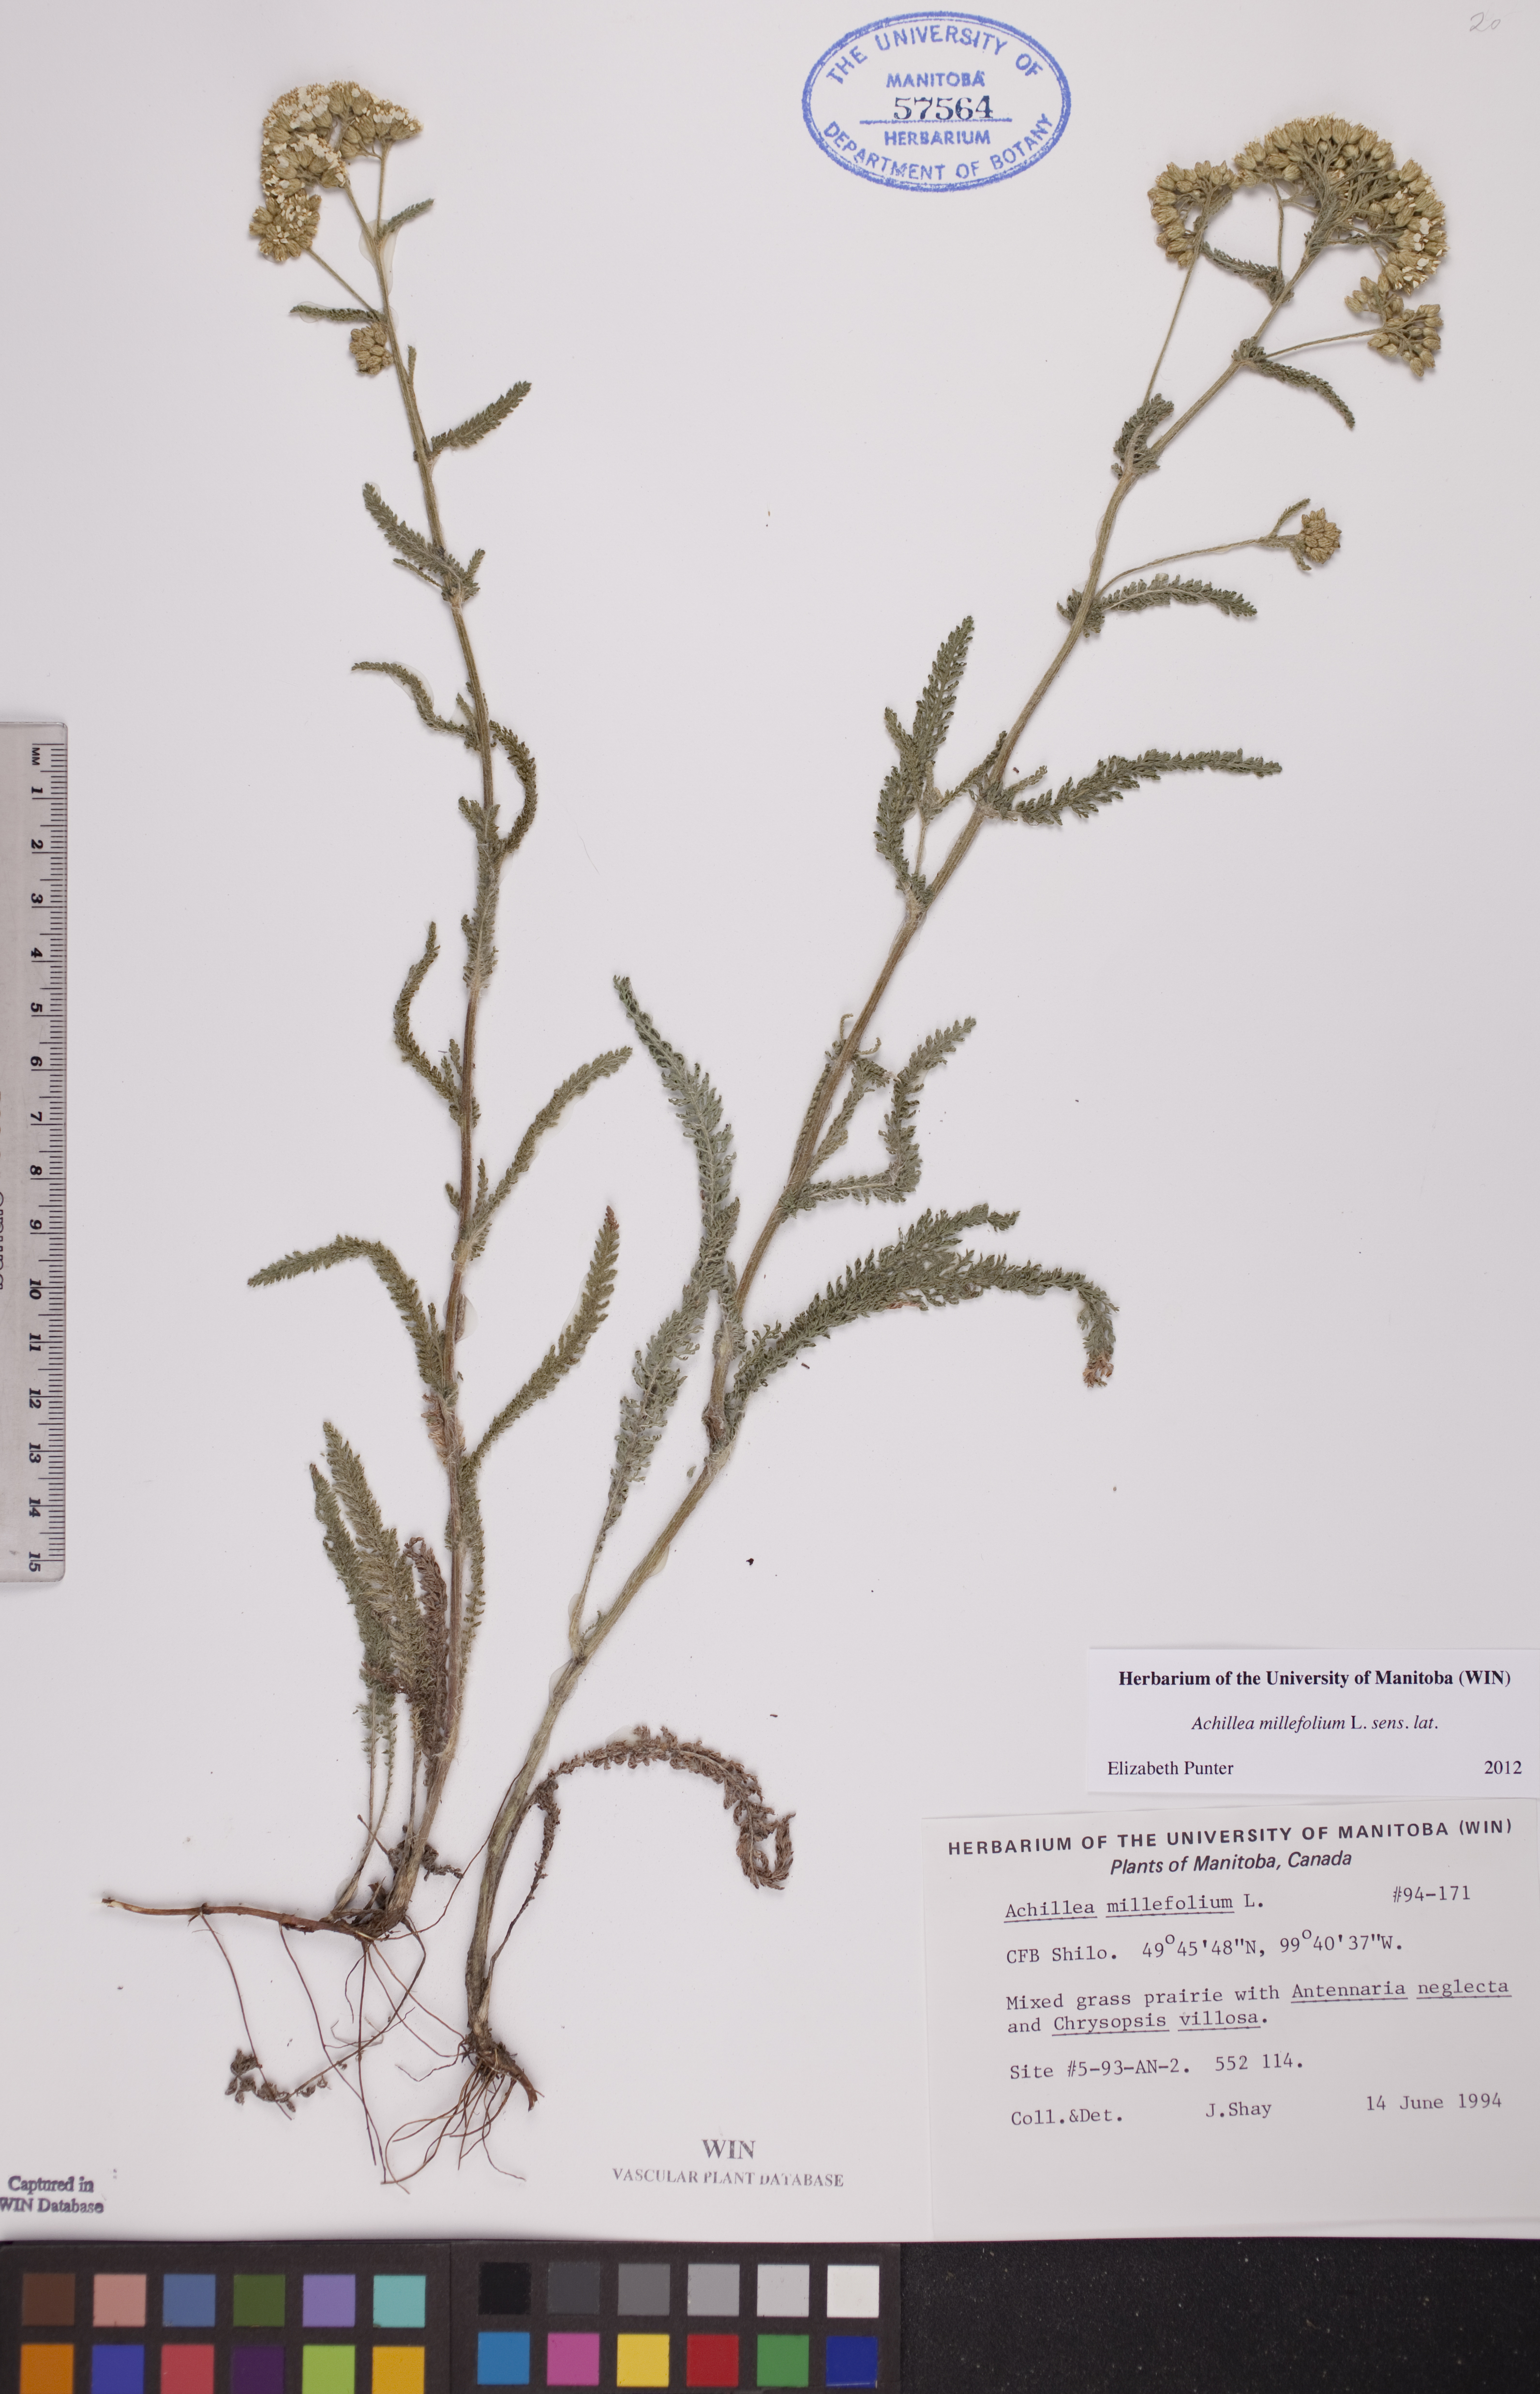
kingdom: Plantae
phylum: Tracheophyta
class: Magnoliopsida
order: Asterales
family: Asteraceae
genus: Achillea
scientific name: Achillea millefolium
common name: Yarrow
